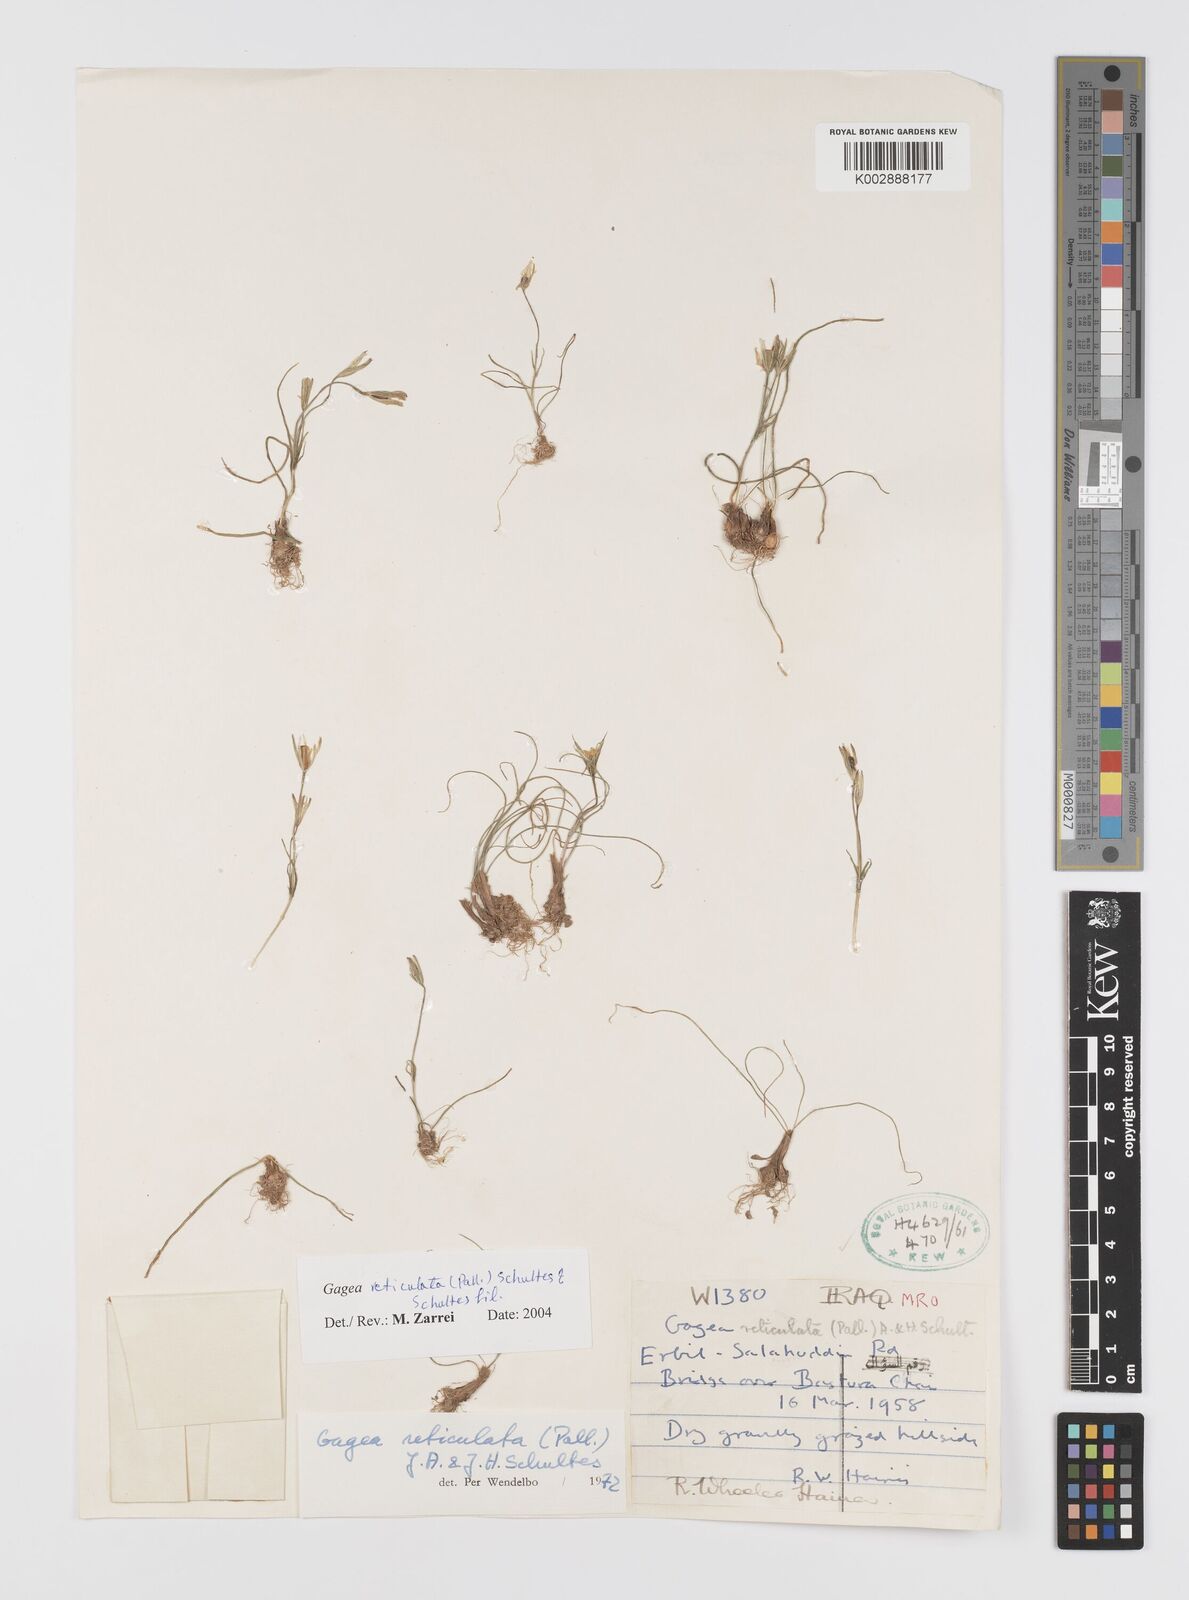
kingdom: Plantae
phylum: Tracheophyta
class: Liliopsida
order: Liliales
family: Liliaceae
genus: Gagea
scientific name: Gagea reticulata
